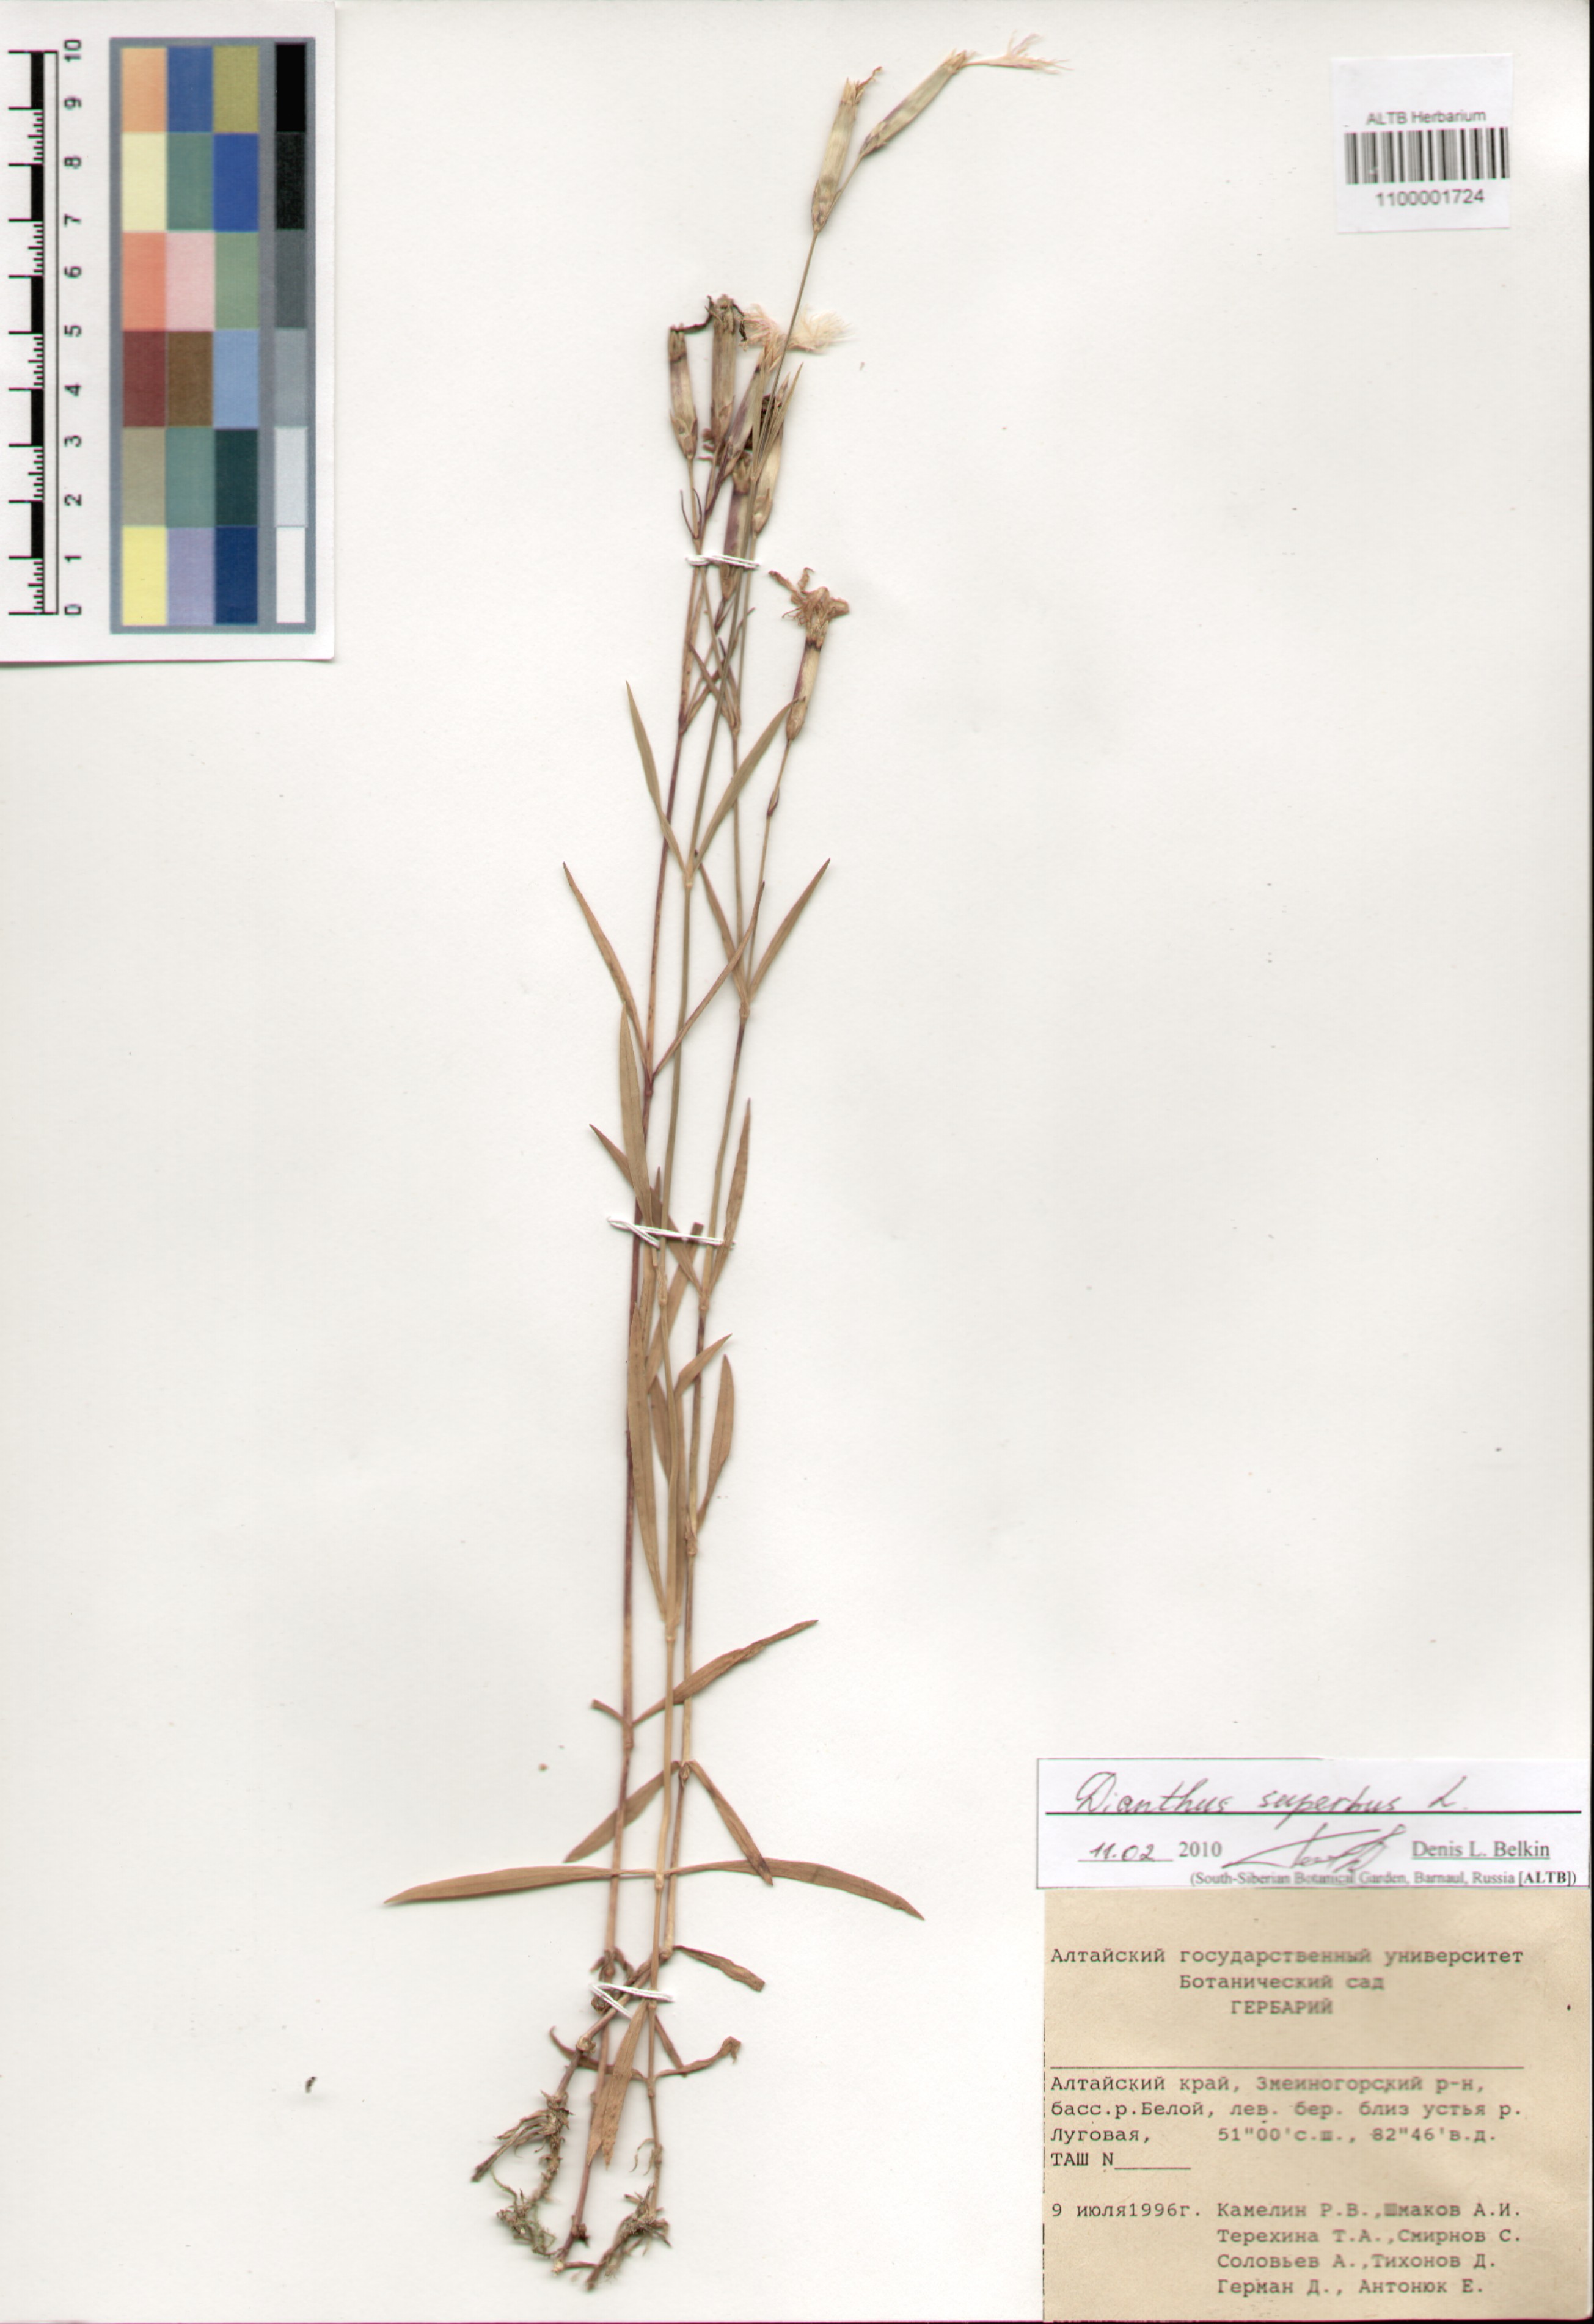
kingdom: Plantae
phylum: Tracheophyta
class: Magnoliopsida
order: Caryophyllales
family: Caryophyllaceae
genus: Dianthus
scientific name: Dianthus superbus
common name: Fringed pink
